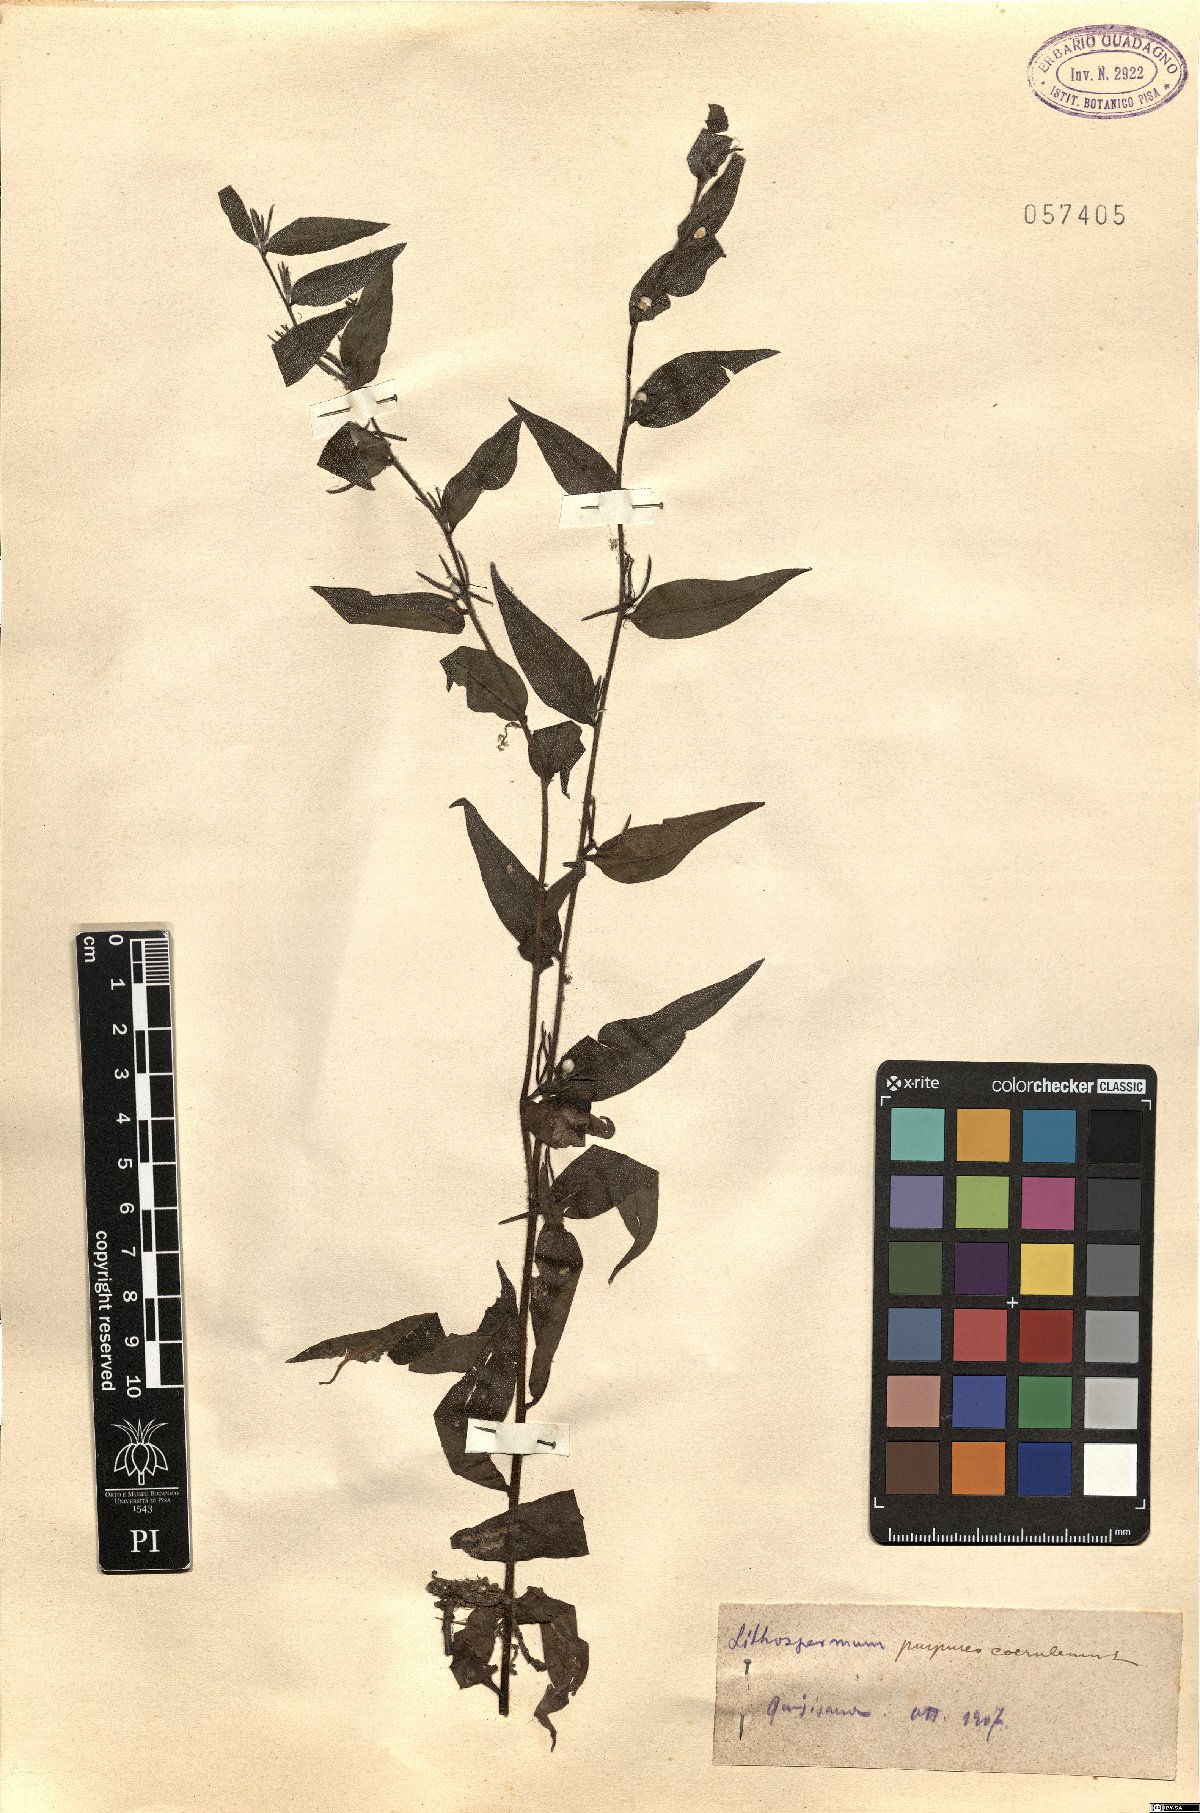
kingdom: Plantae
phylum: Tracheophyta
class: Magnoliopsida
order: Boraginales
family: Boraginaceae
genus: Aegonychon
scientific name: Aegonychon purpurocaeruleum
